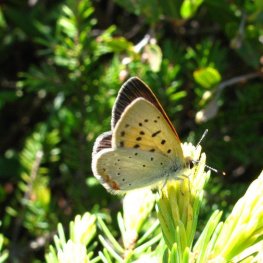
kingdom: Animalia
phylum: Arthropoda
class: Insecta
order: Lepidoptera
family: Sesiidae
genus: Sesia
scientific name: Sesia Lycaena epixanthe
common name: Bog Copper
